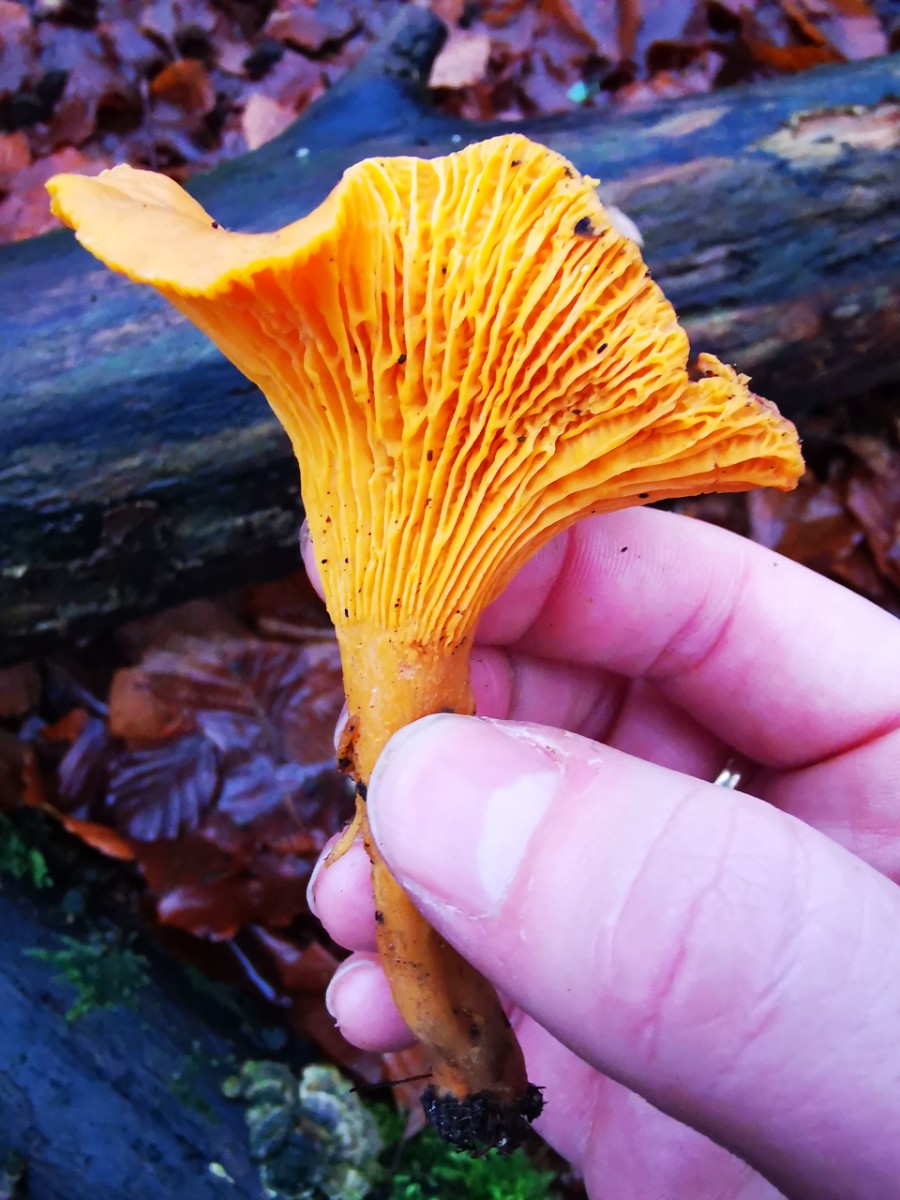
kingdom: Fungi
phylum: Basidiomycota
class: Agaricomycetes
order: Cantharellales
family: Hydnaceae
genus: Cantharellus
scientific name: Cantharellus cibarius
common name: almindelig kantarel
